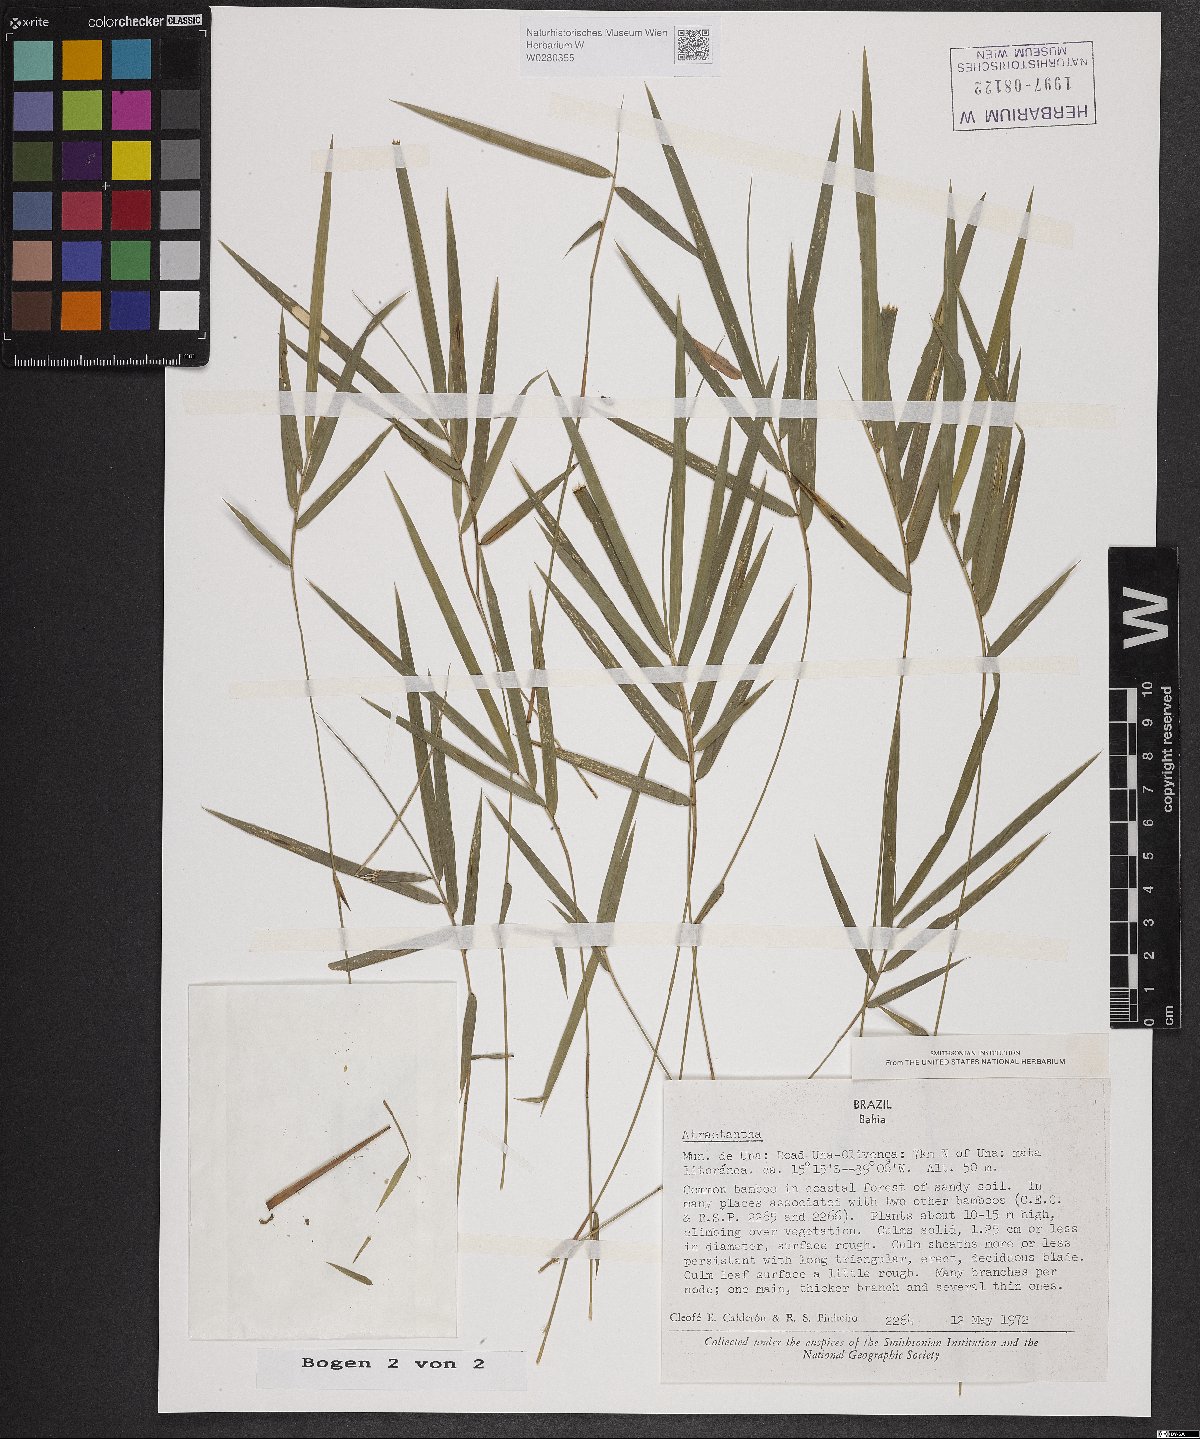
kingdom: Plantae
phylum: Tracheophyta
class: Liliopsida
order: Poales
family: Poaceae
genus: Atractantha
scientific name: Atractantha
